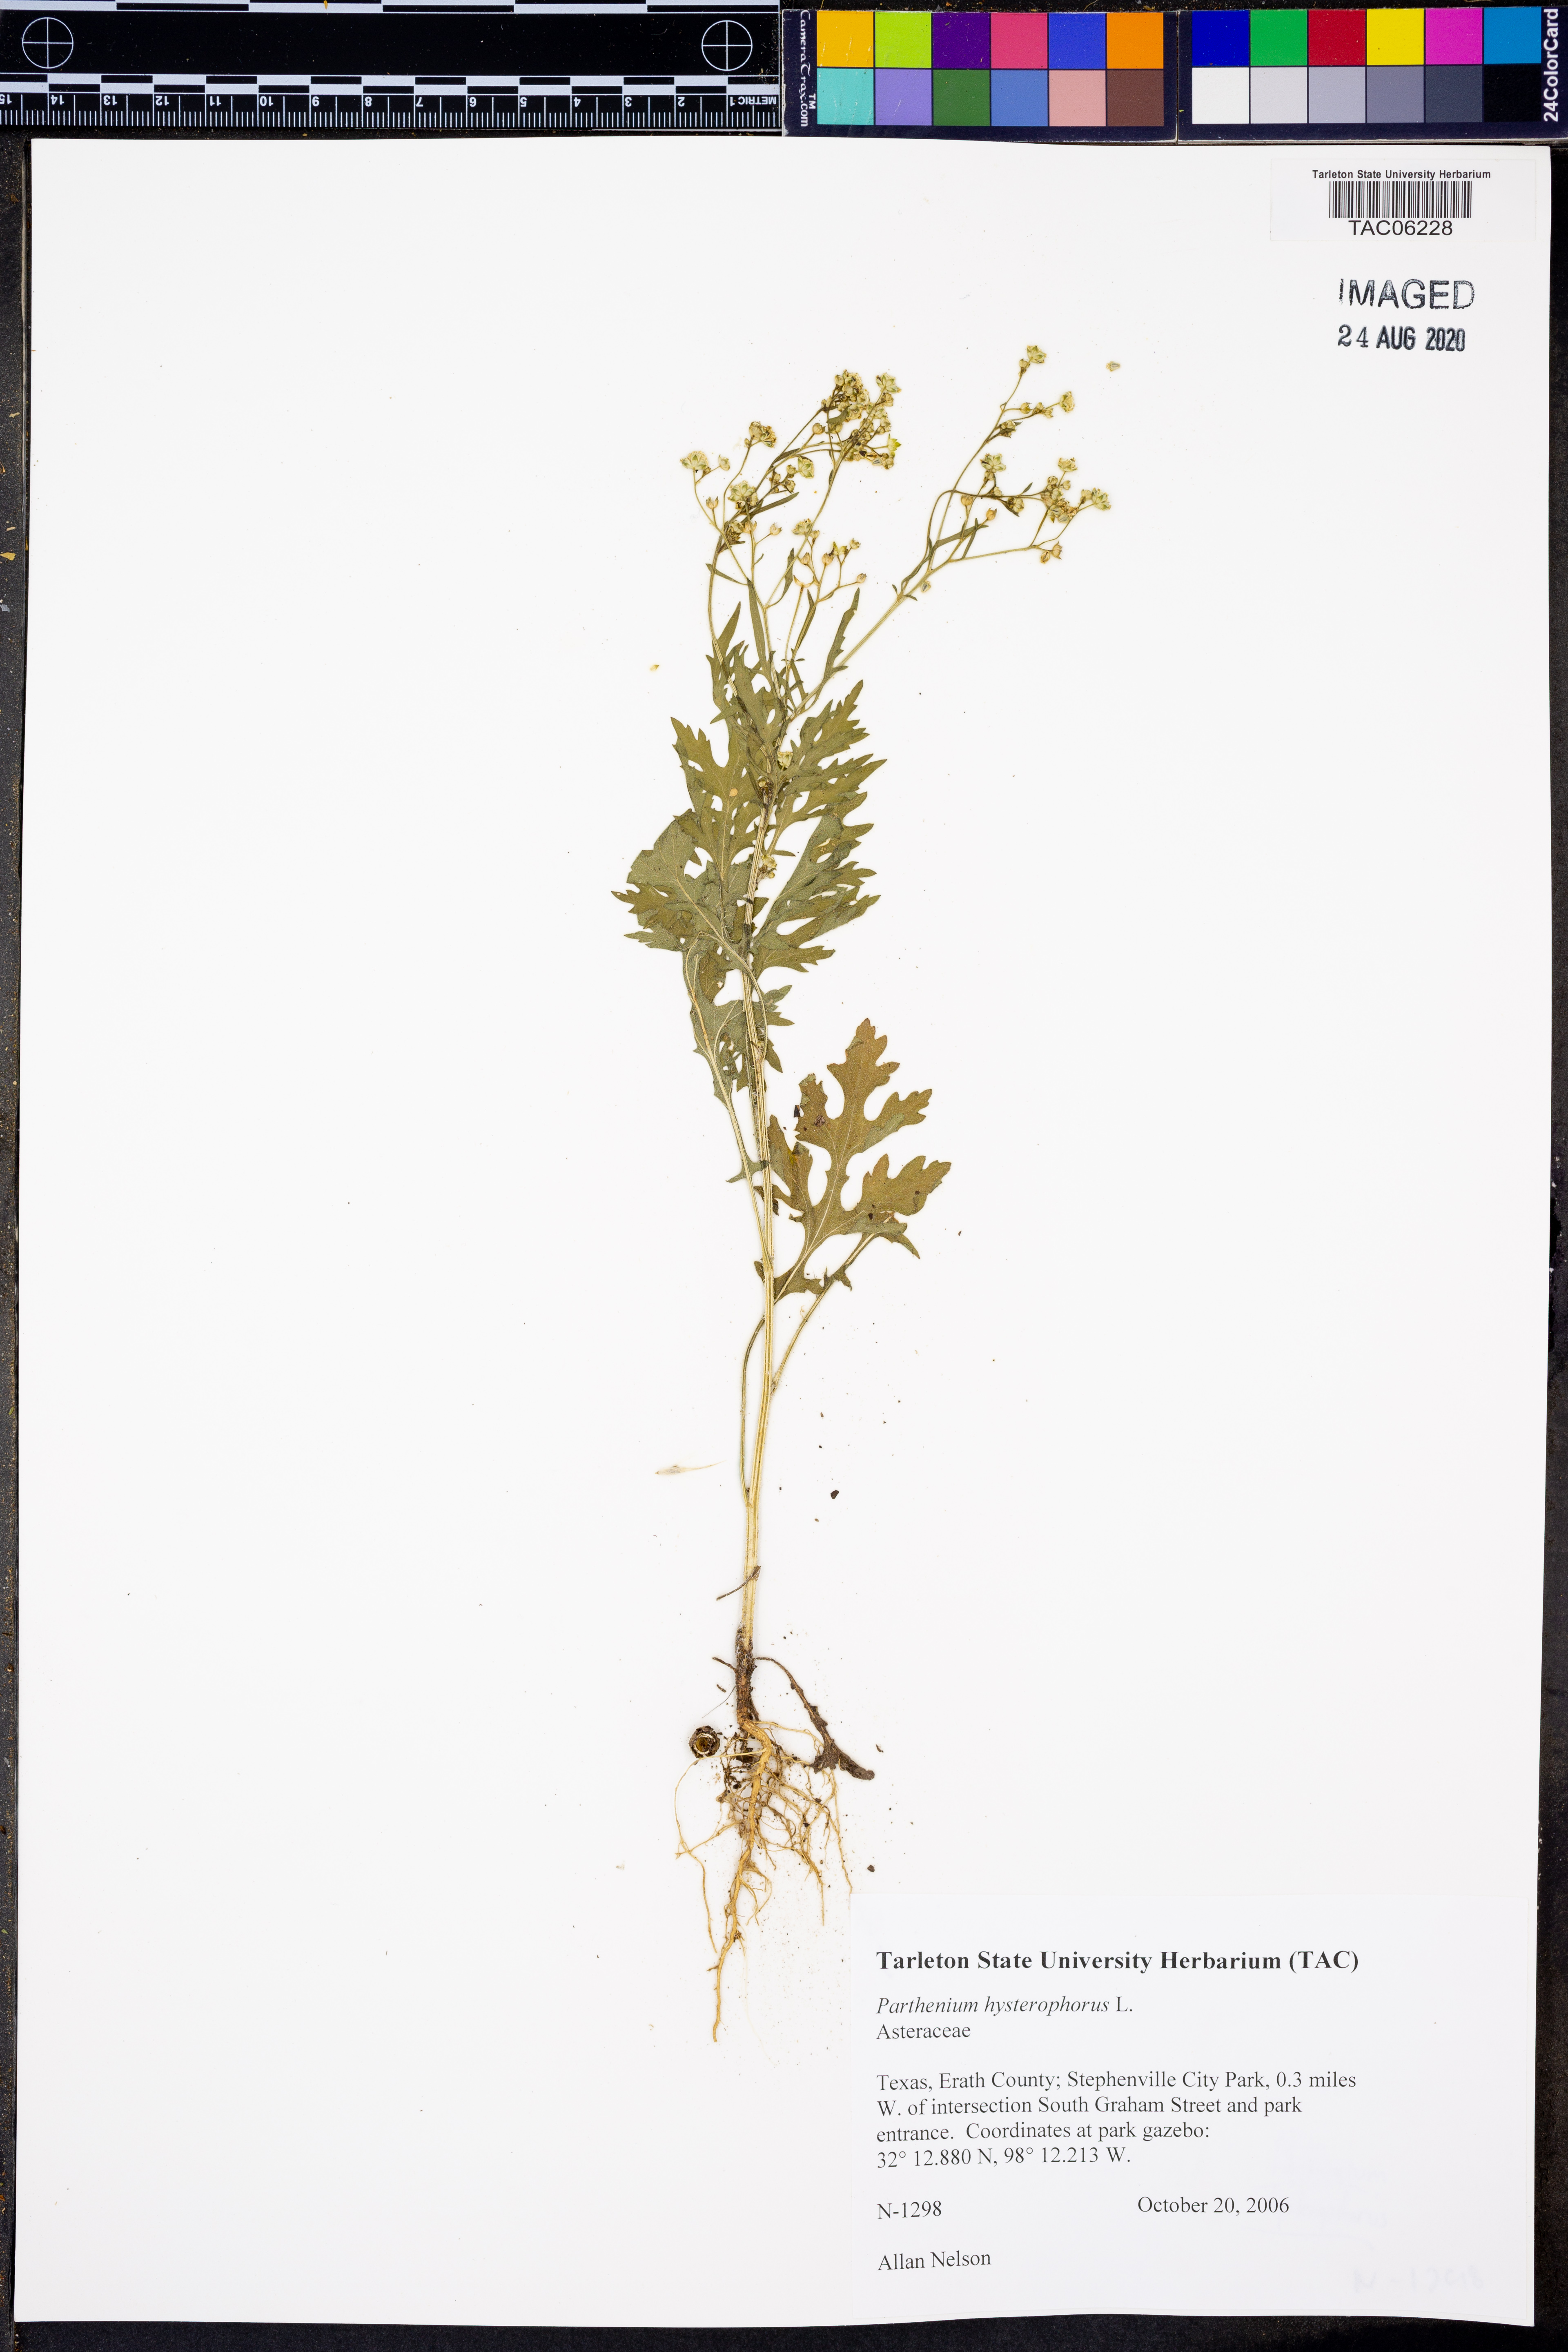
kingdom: Plantae
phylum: Tracheophyta
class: Magnoliopsida
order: Asterales
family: Asteraceae
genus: Parthenium
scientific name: Parthenium hysterophorus
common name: Santa maria feverfew
